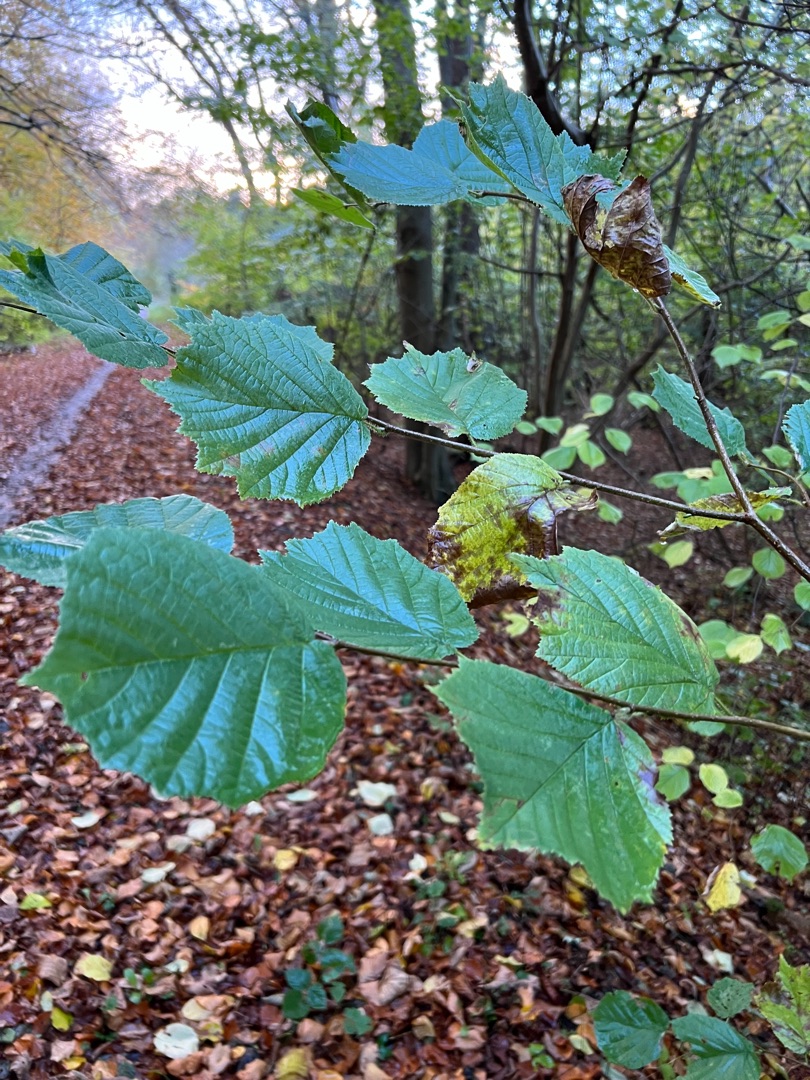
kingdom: Plantae
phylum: Tracheophyta
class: Magnoliopsida
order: Fagales
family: Betulaceae
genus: Corylus
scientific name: Corylus avellana
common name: Hassel
